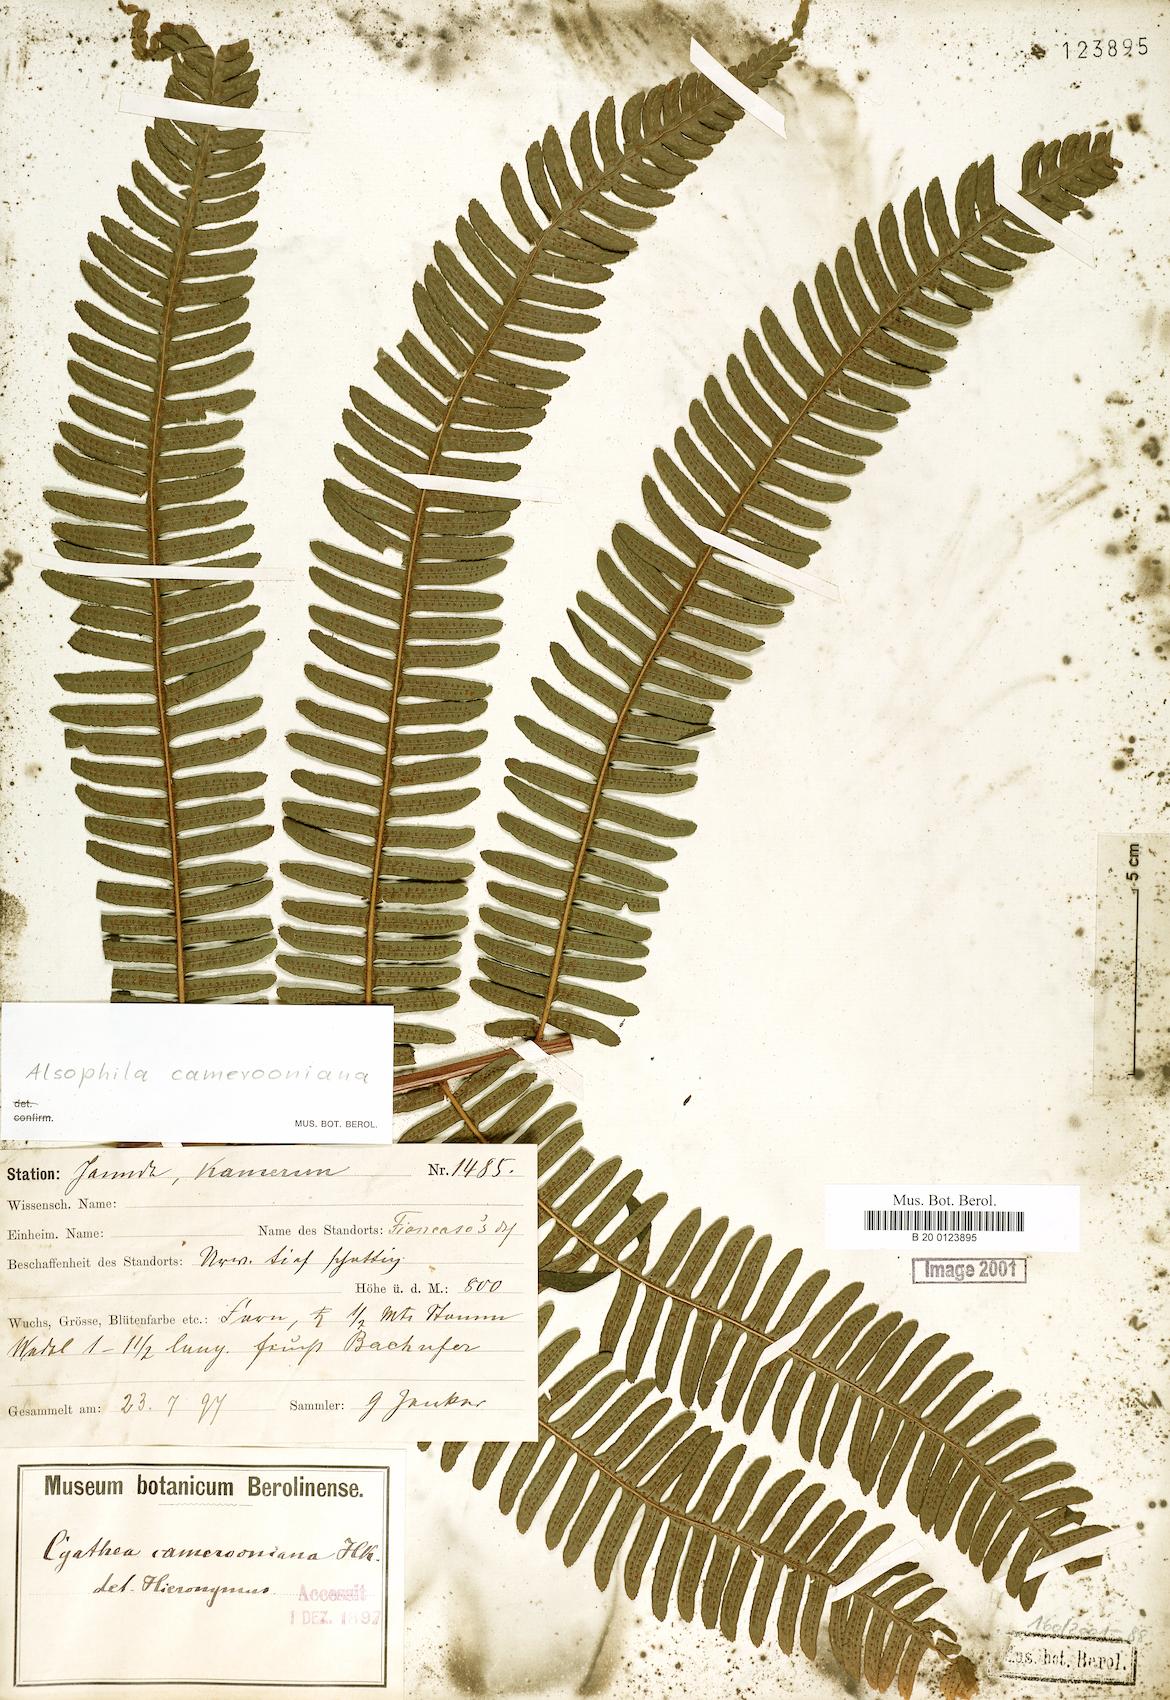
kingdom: Plantae
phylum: Tracheophyta
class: Polypodiopsida
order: Cyatheales
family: Cyatheaceae
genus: Alsophila
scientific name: Alsophila camerooniana
